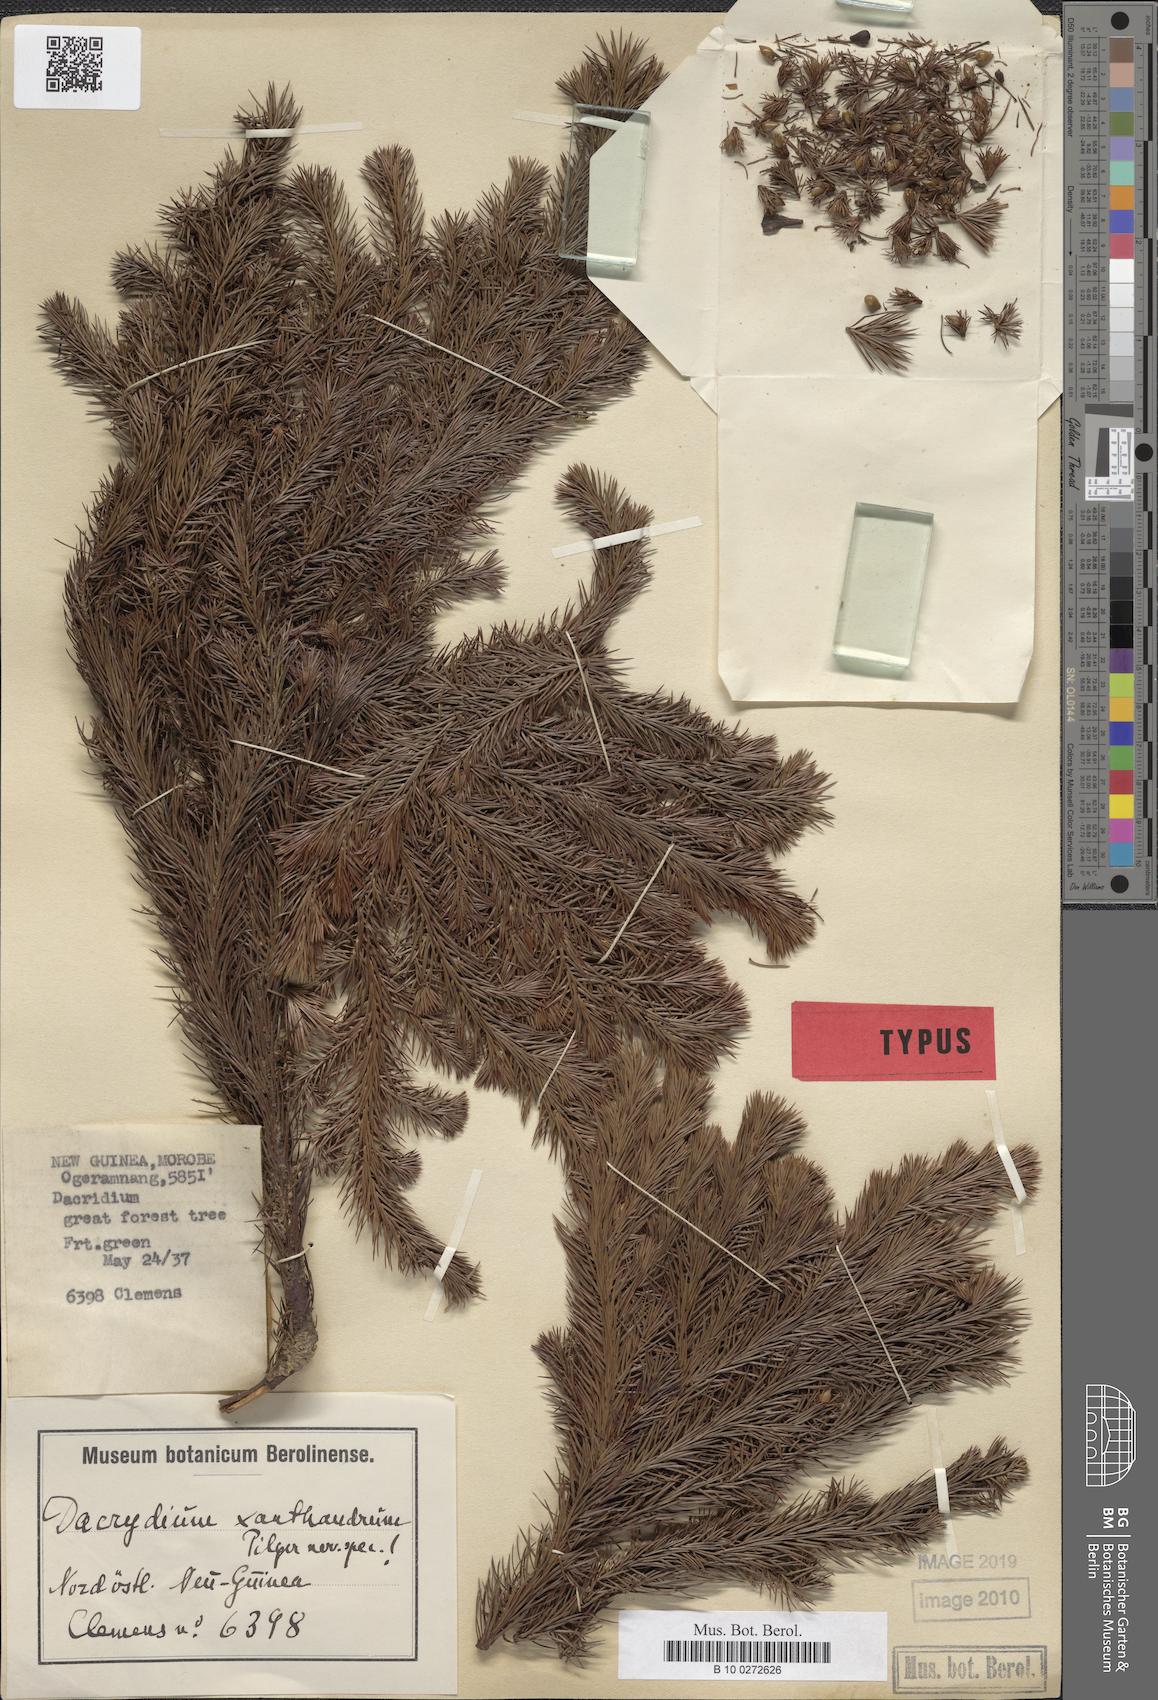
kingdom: Plantae
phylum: Tracheophyta
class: Pinopsida
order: Pinales
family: Podocarpaceae
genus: Dacrydium
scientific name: Dacrydium xanthandrum
